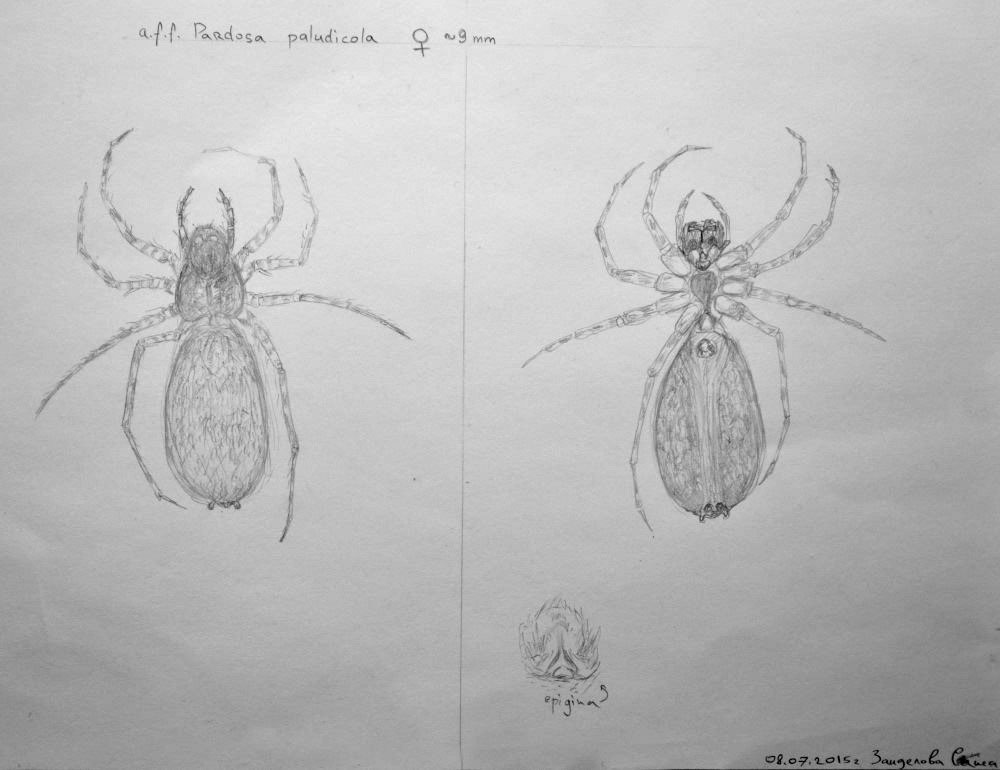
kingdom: Animalia
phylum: Arthropoda
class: Arachnida
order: Araneae
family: Lycosidae
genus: Pardosa
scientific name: Pardosa paludicola
